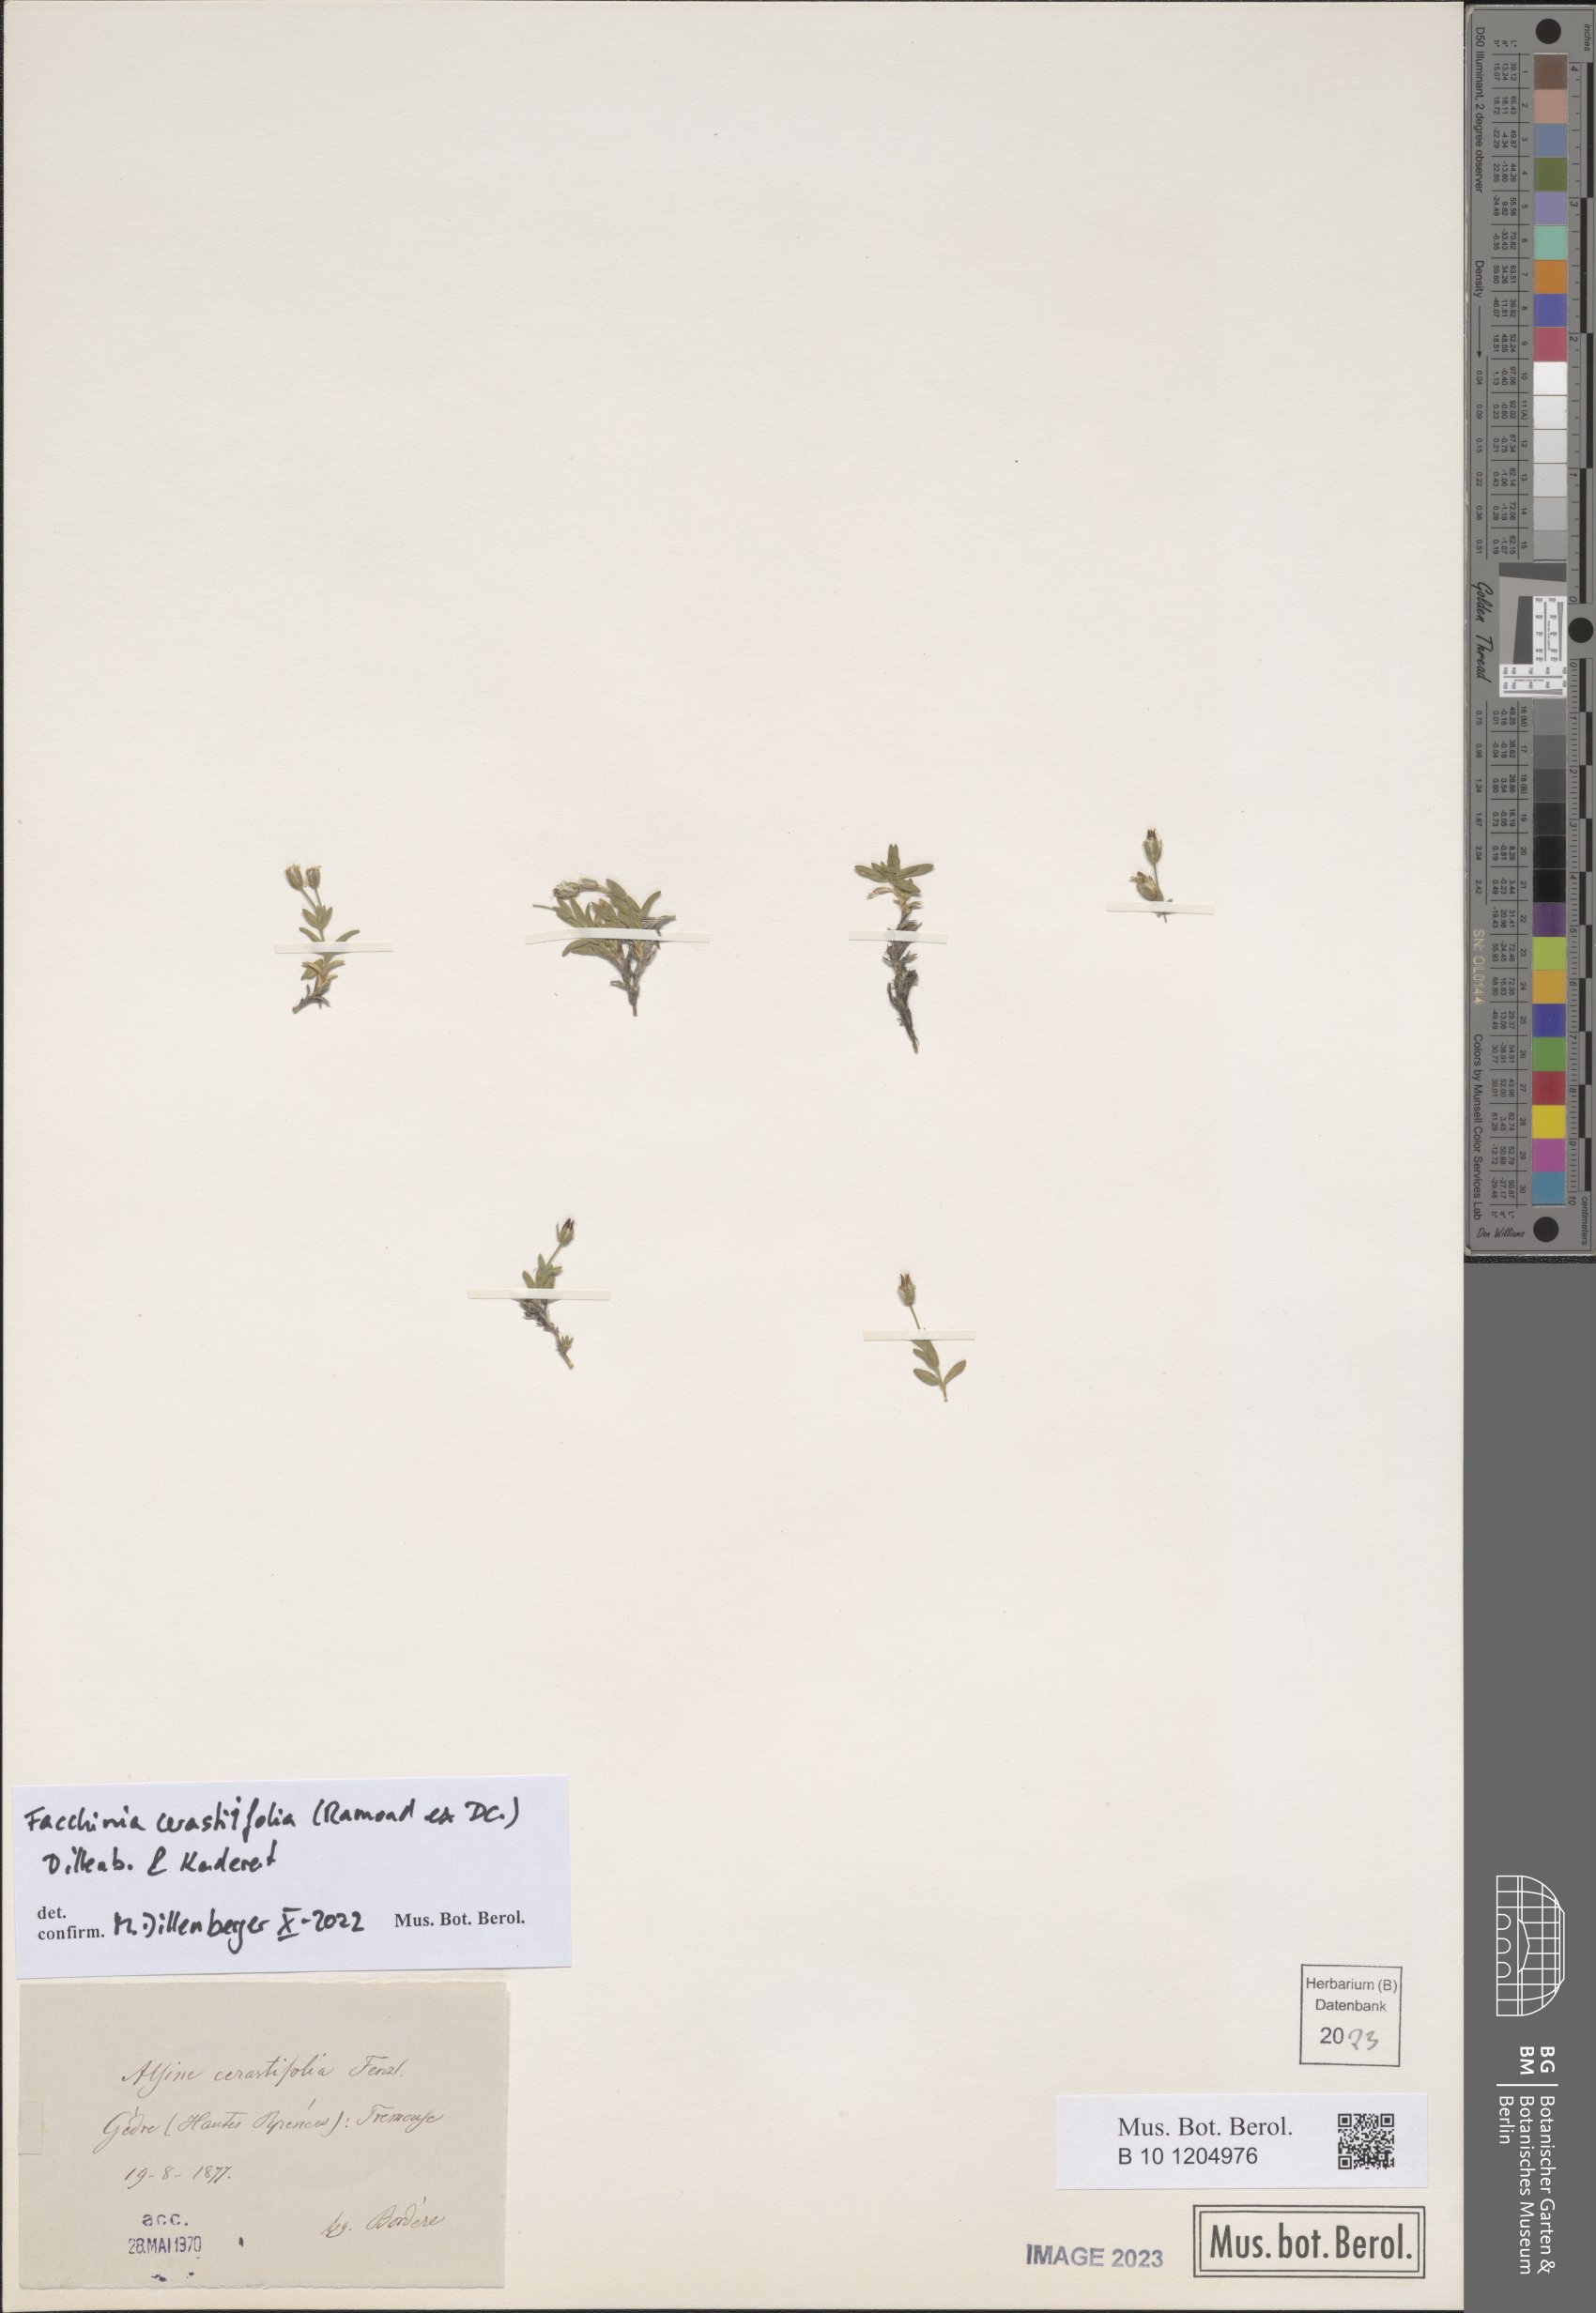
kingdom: Plantae
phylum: Tracheophyta
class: Magnoliopsida
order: Caryophyllales
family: Caryophyllaceae
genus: Facchinia
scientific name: Facchinia cerastiifolia
